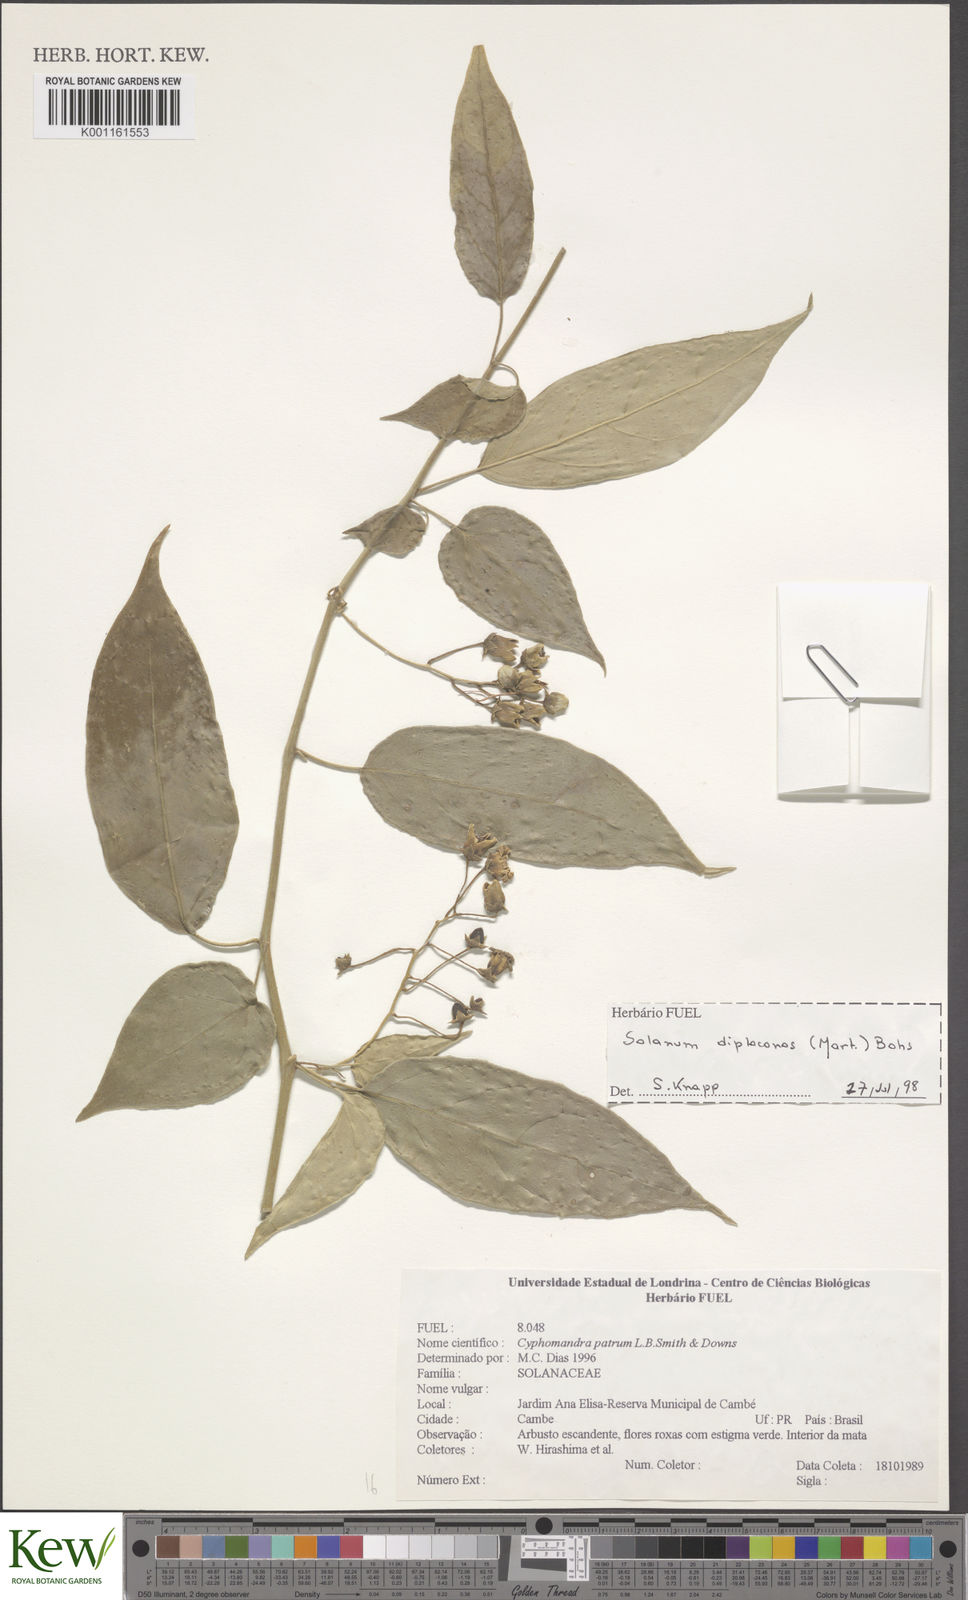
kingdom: Plantae
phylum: Tracheophyta
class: Magnoliopsida
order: Solanales
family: Solanaceae
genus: Solanum
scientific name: Solanum diploconos
